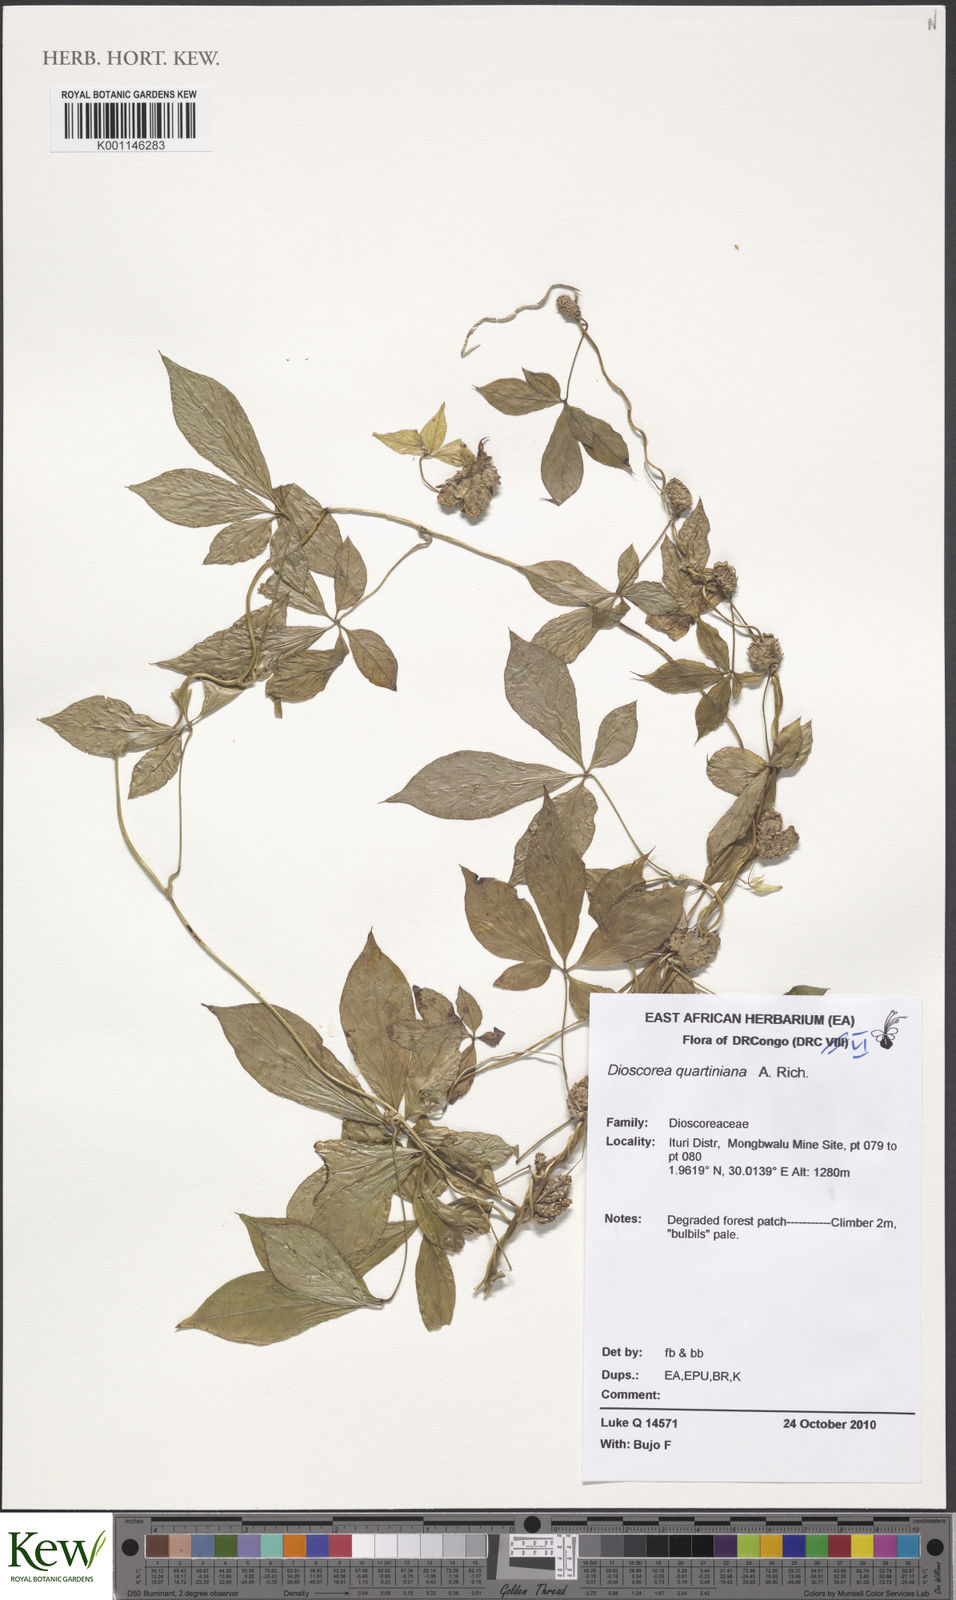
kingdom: Plantae
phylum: Tracheophyta
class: Liliopsida
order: Dioscoreales
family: Dioscoreaceae
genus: Dioscorea
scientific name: Dioscorea quartiniana
